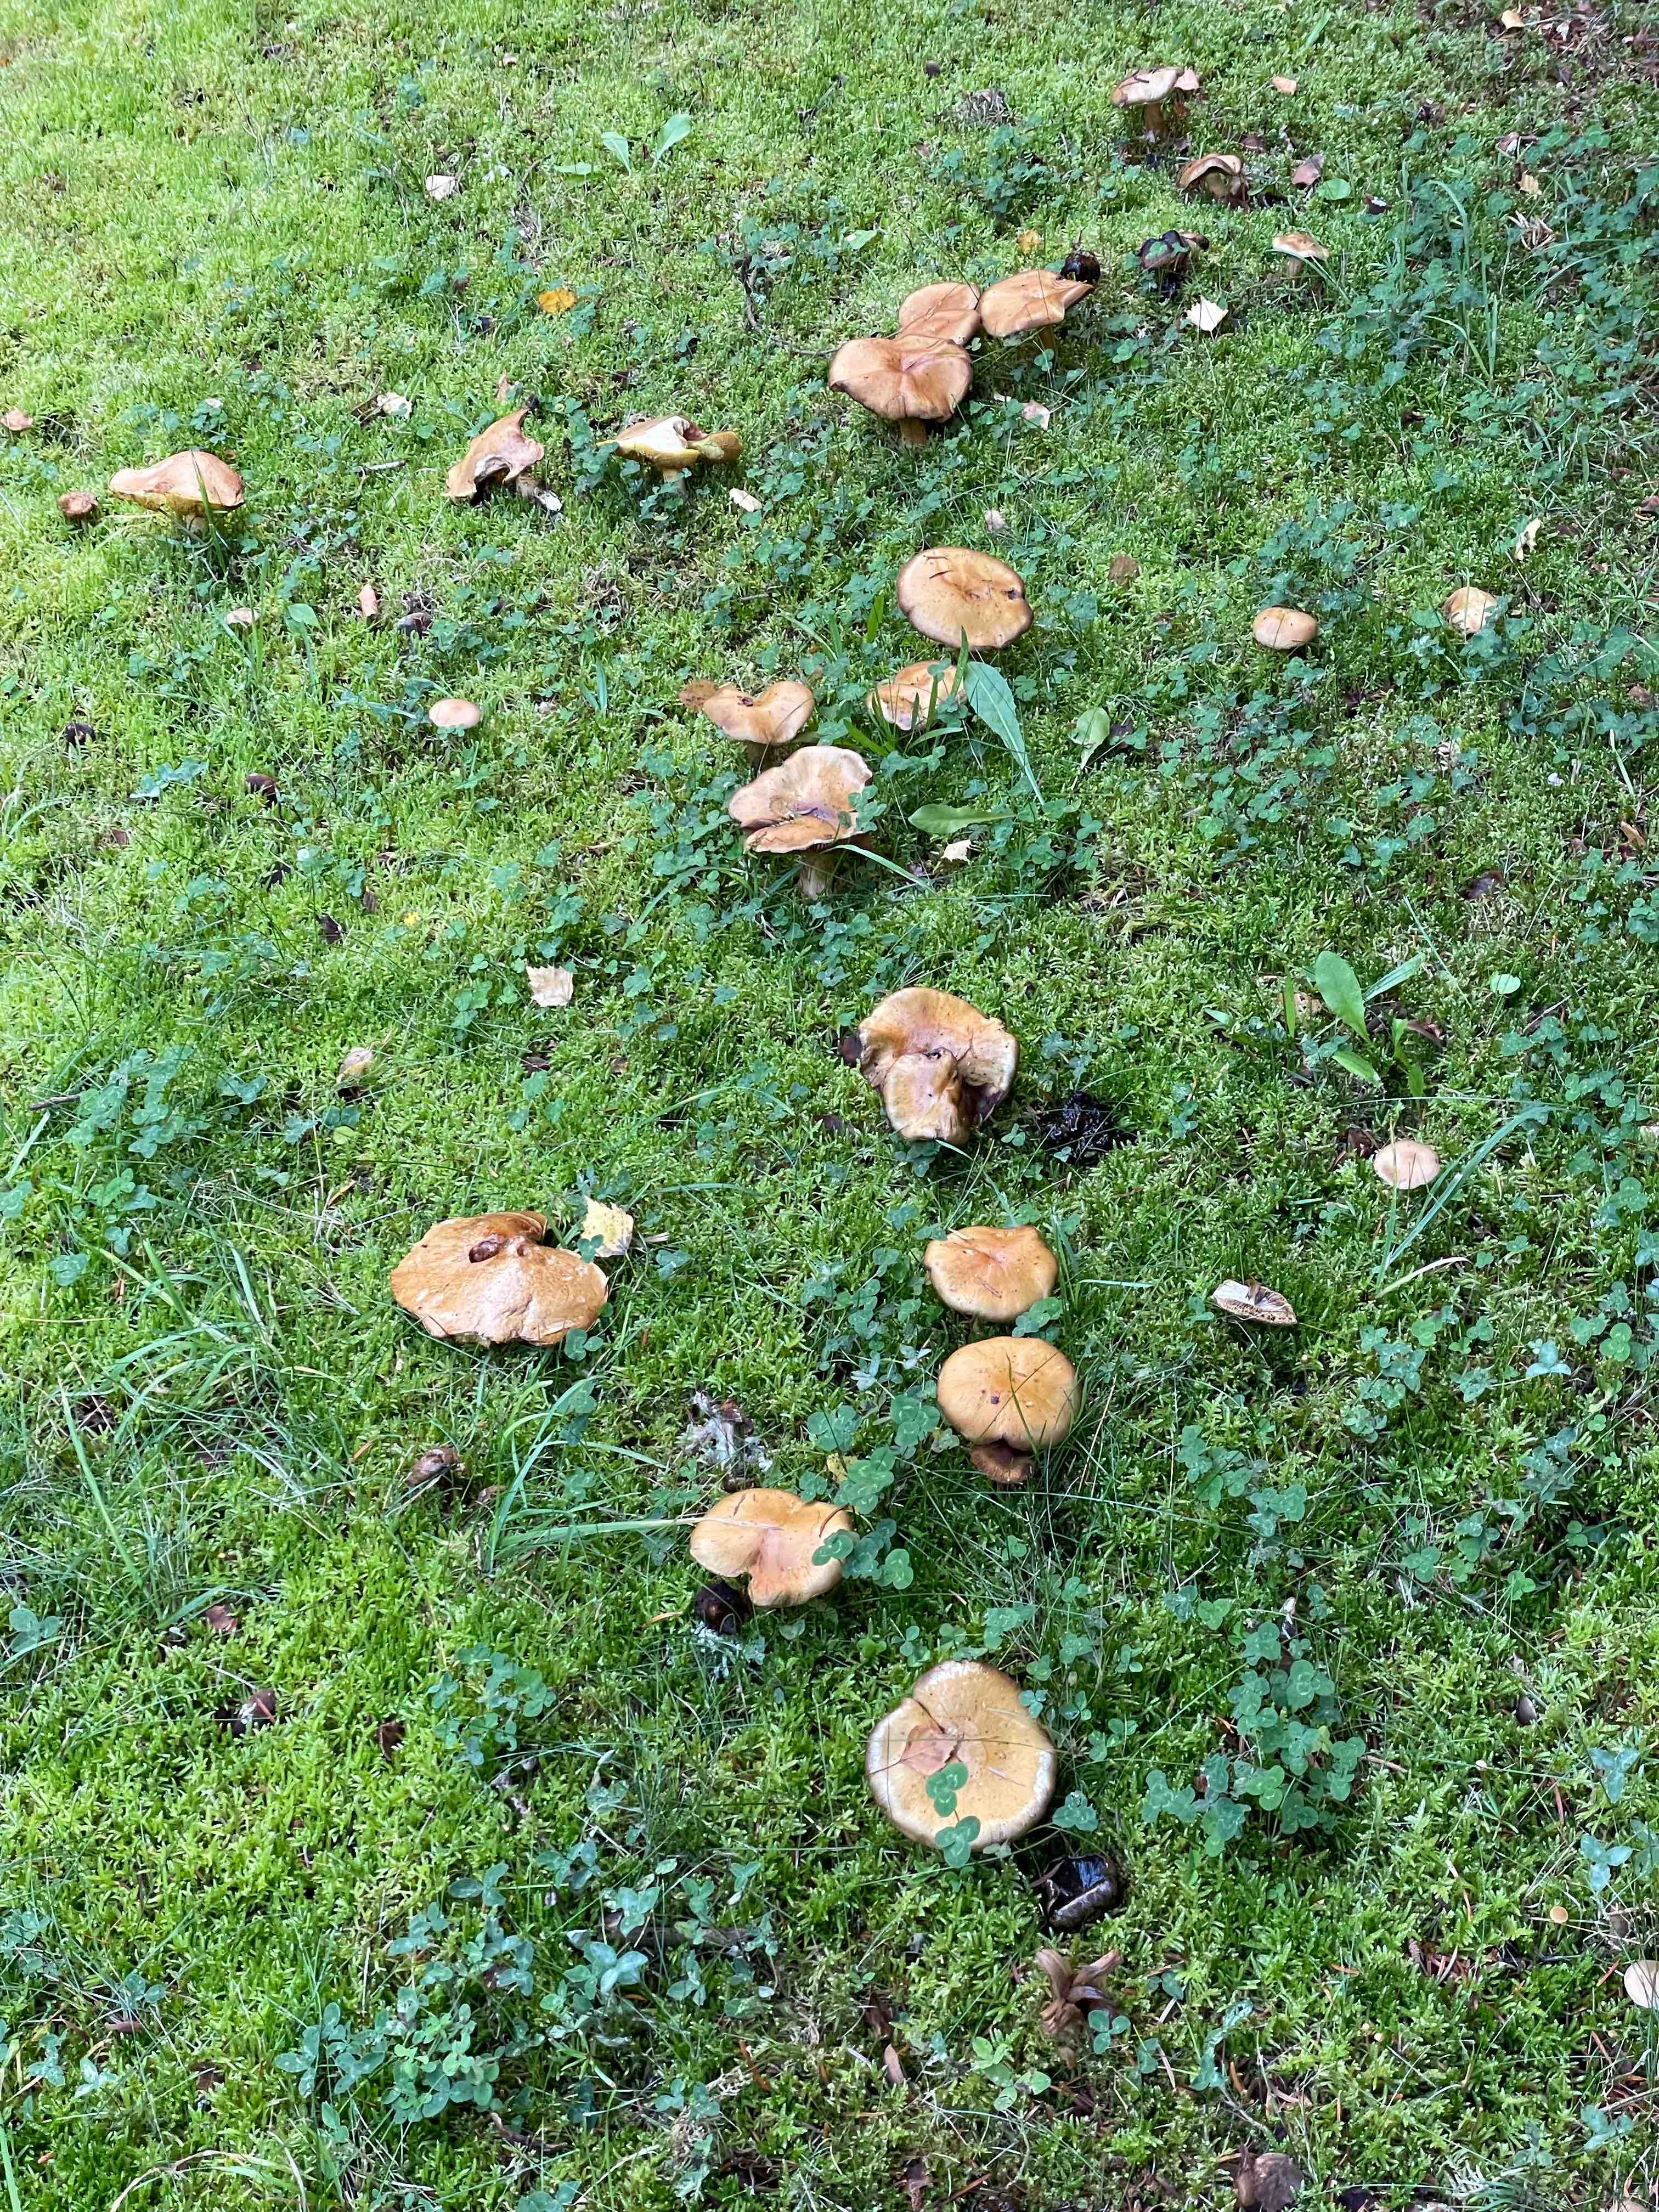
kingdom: Fungi
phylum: Basidiomycota
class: Agaricomycetes
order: Agaricales
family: Cortinariaceae
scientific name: Cortinariaceae
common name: slørhatfamilien
